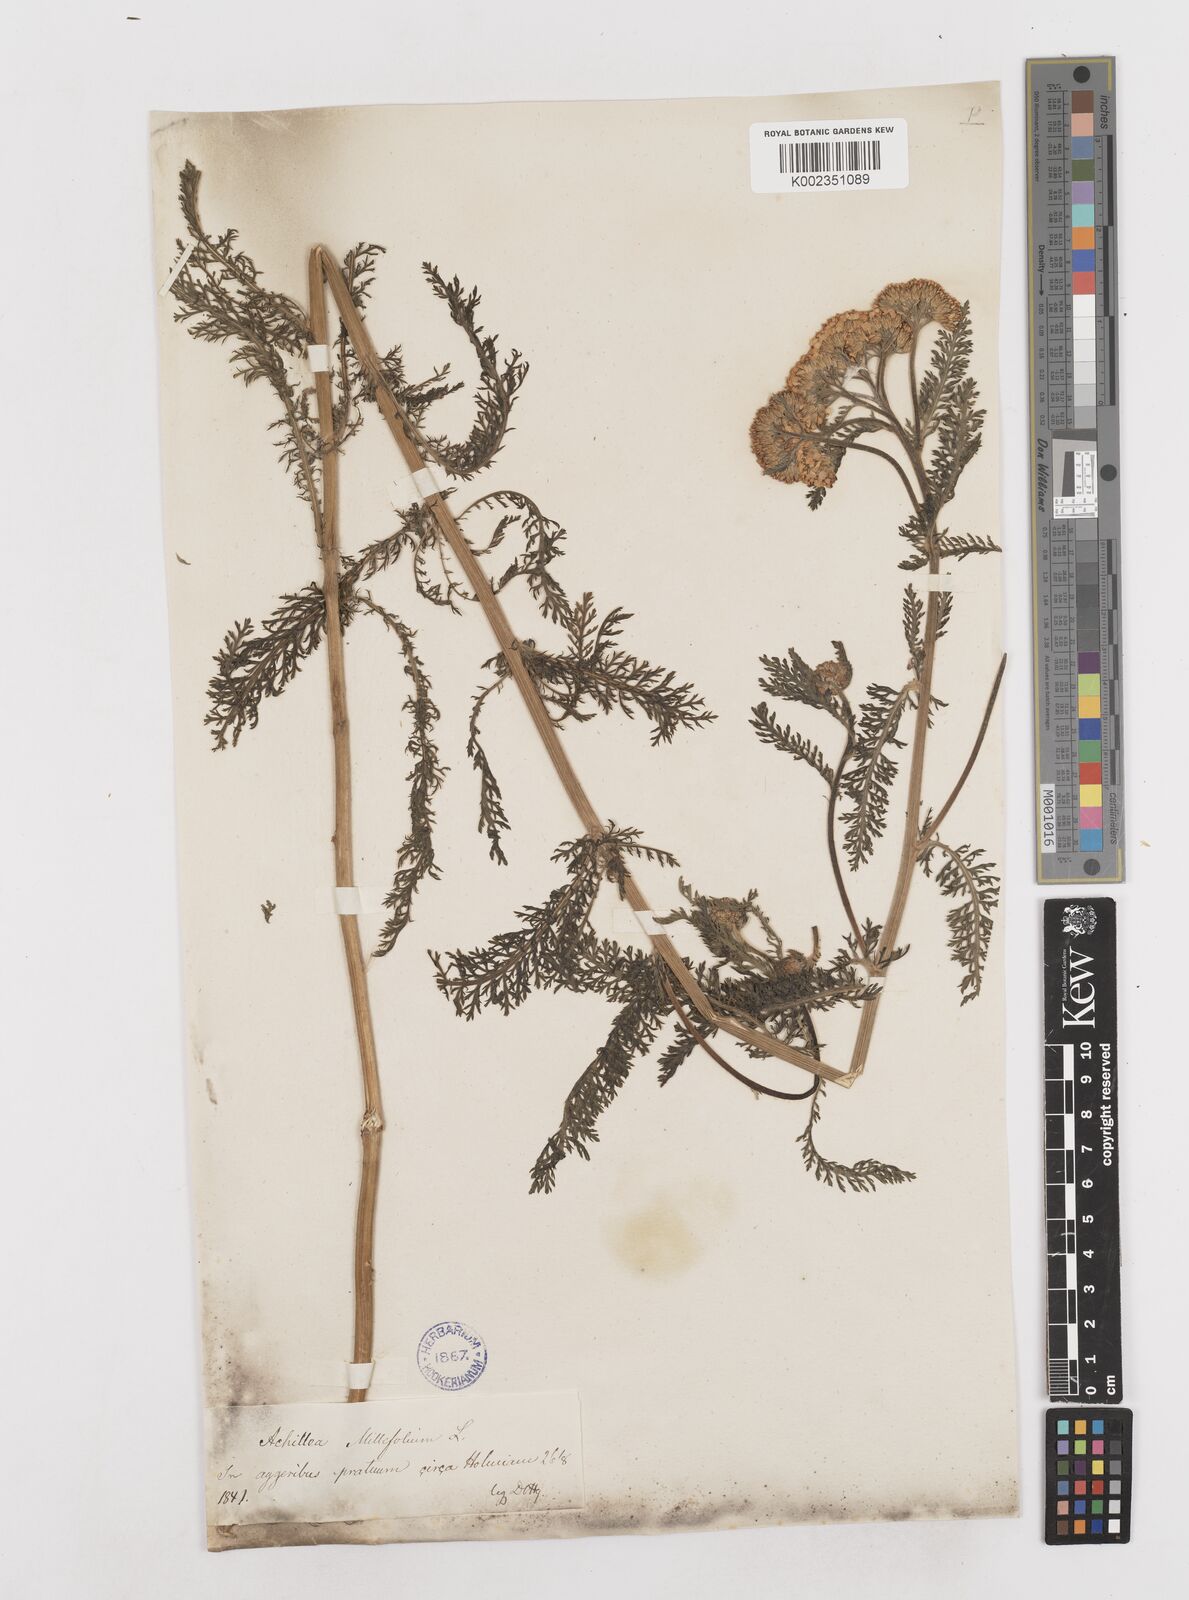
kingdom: Plantae
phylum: Tracheophyta
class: Magnoliopsida
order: Asterales
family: Asteraceae
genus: Achillea
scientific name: Achillea millefolium
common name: Yarrow
